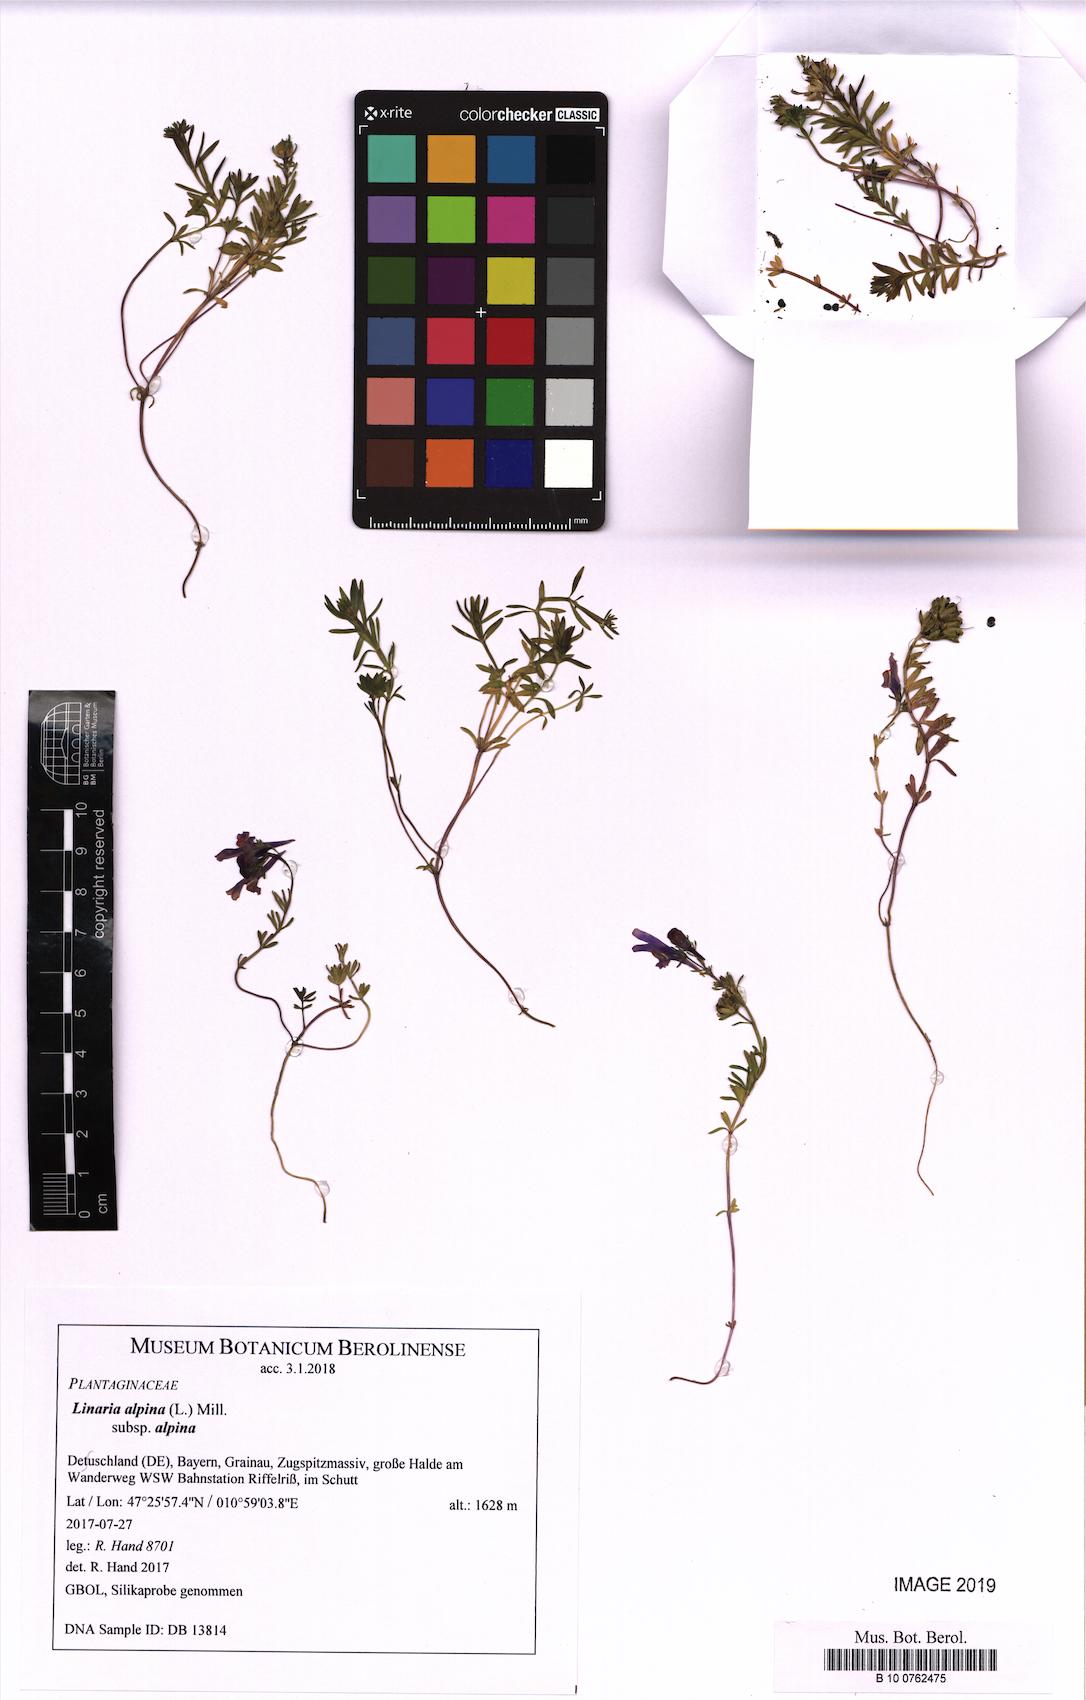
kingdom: Plantae
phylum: Tracheophyta
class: Magnoliopsida
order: Lamiales
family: Plantaginaceae
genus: Linaria
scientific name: Linaria alpina
